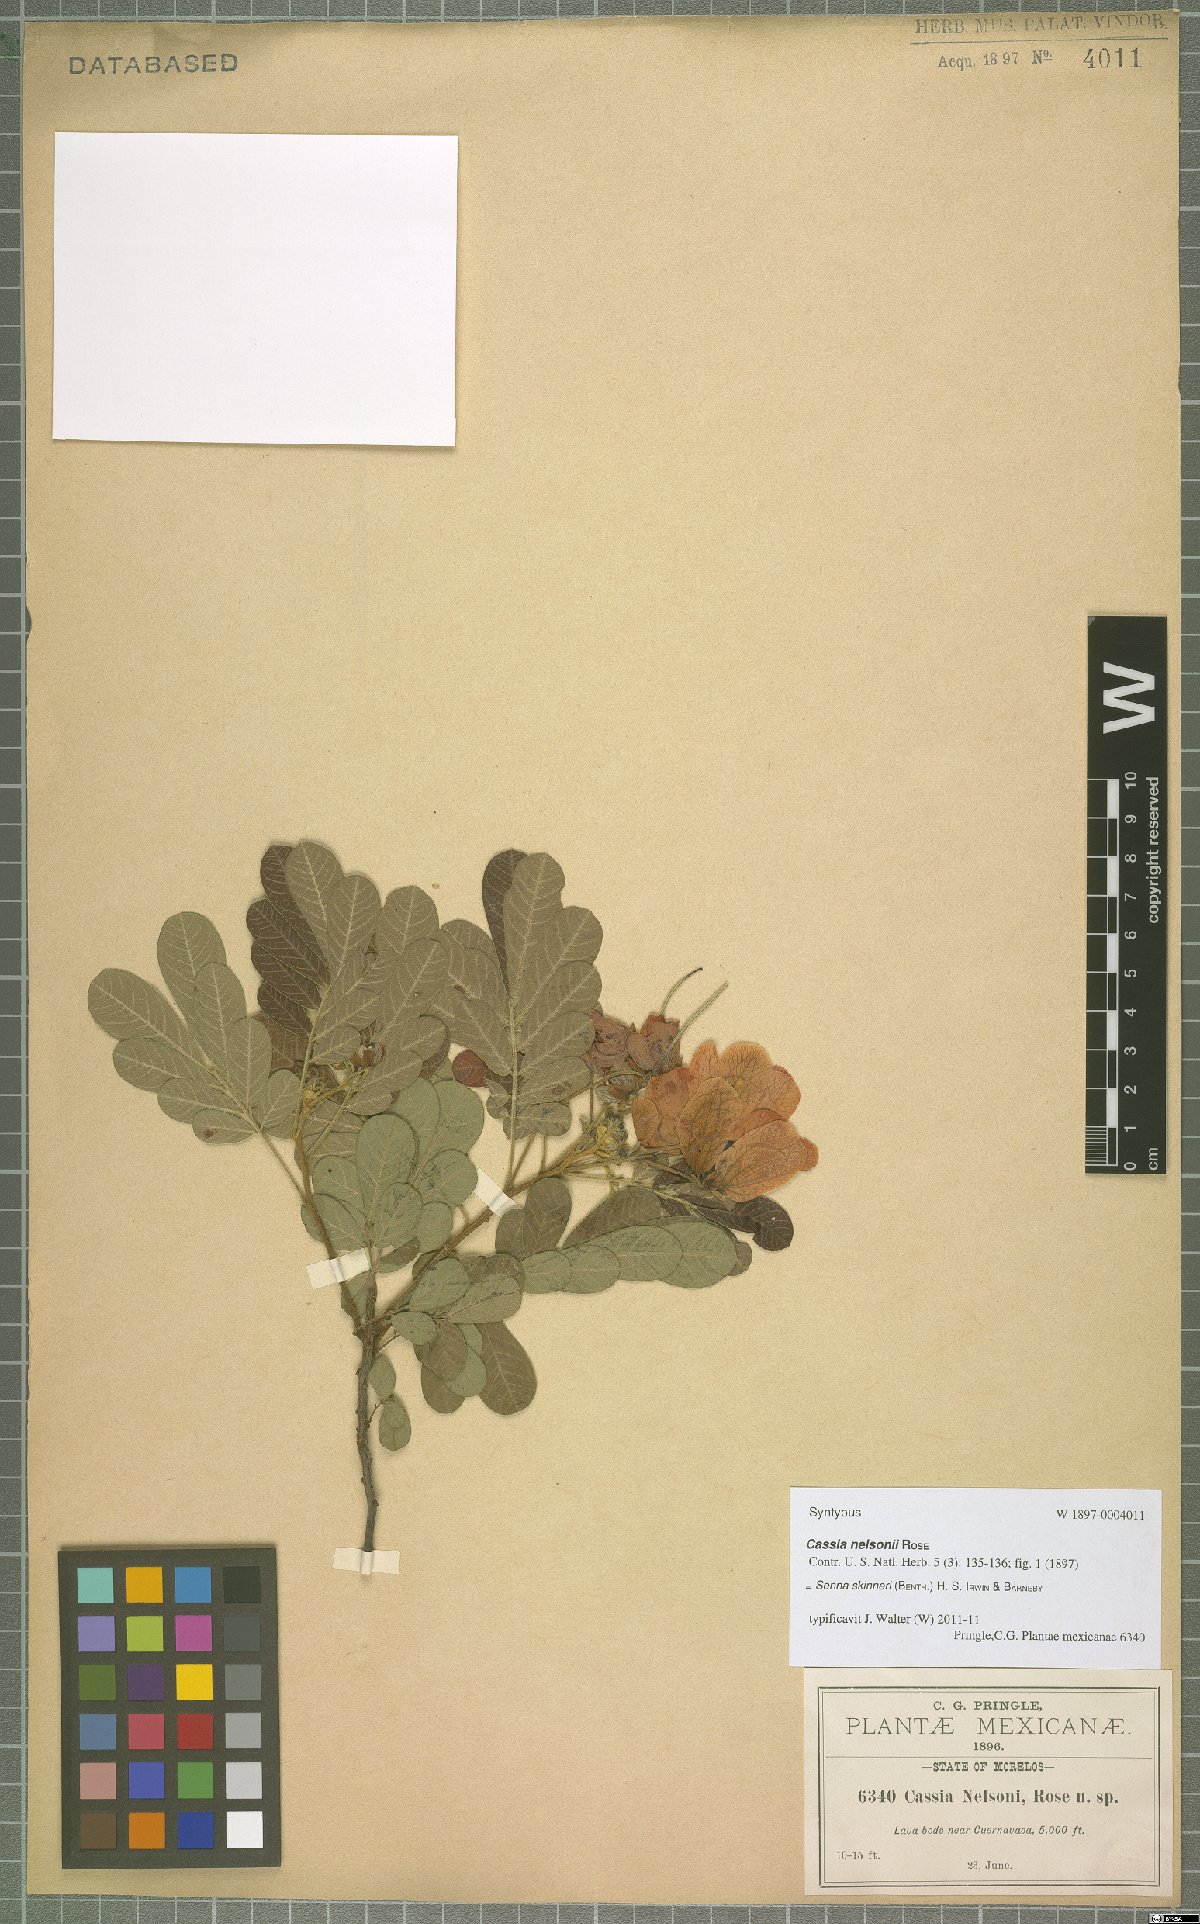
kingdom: Plantae
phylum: Tracheophyta
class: Magnoliopsida
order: Fabales
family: Fabaceae
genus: Senna
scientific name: Senna skinneri
